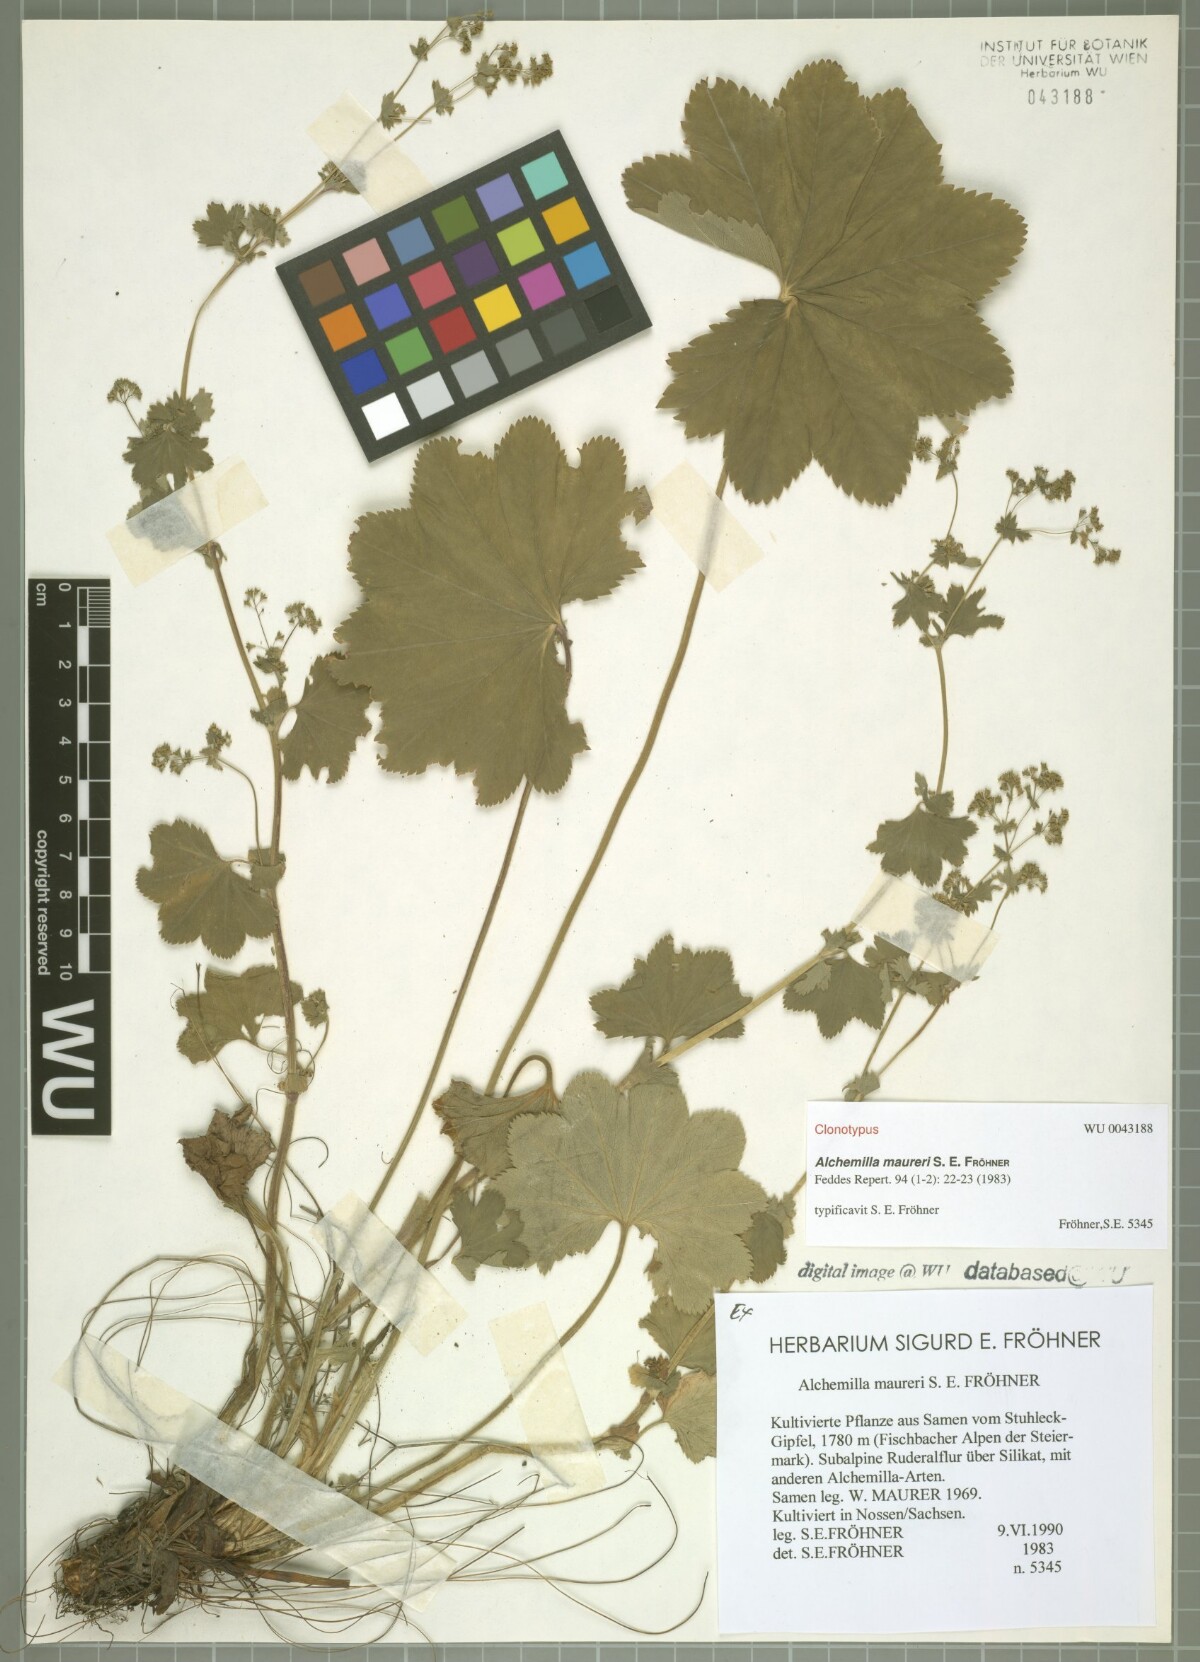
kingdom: Plantae
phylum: Tracheophyta
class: Magnoliopsida
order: Rosales
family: Rosaceae
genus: Alchemilla
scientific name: Alchemilla maureri
